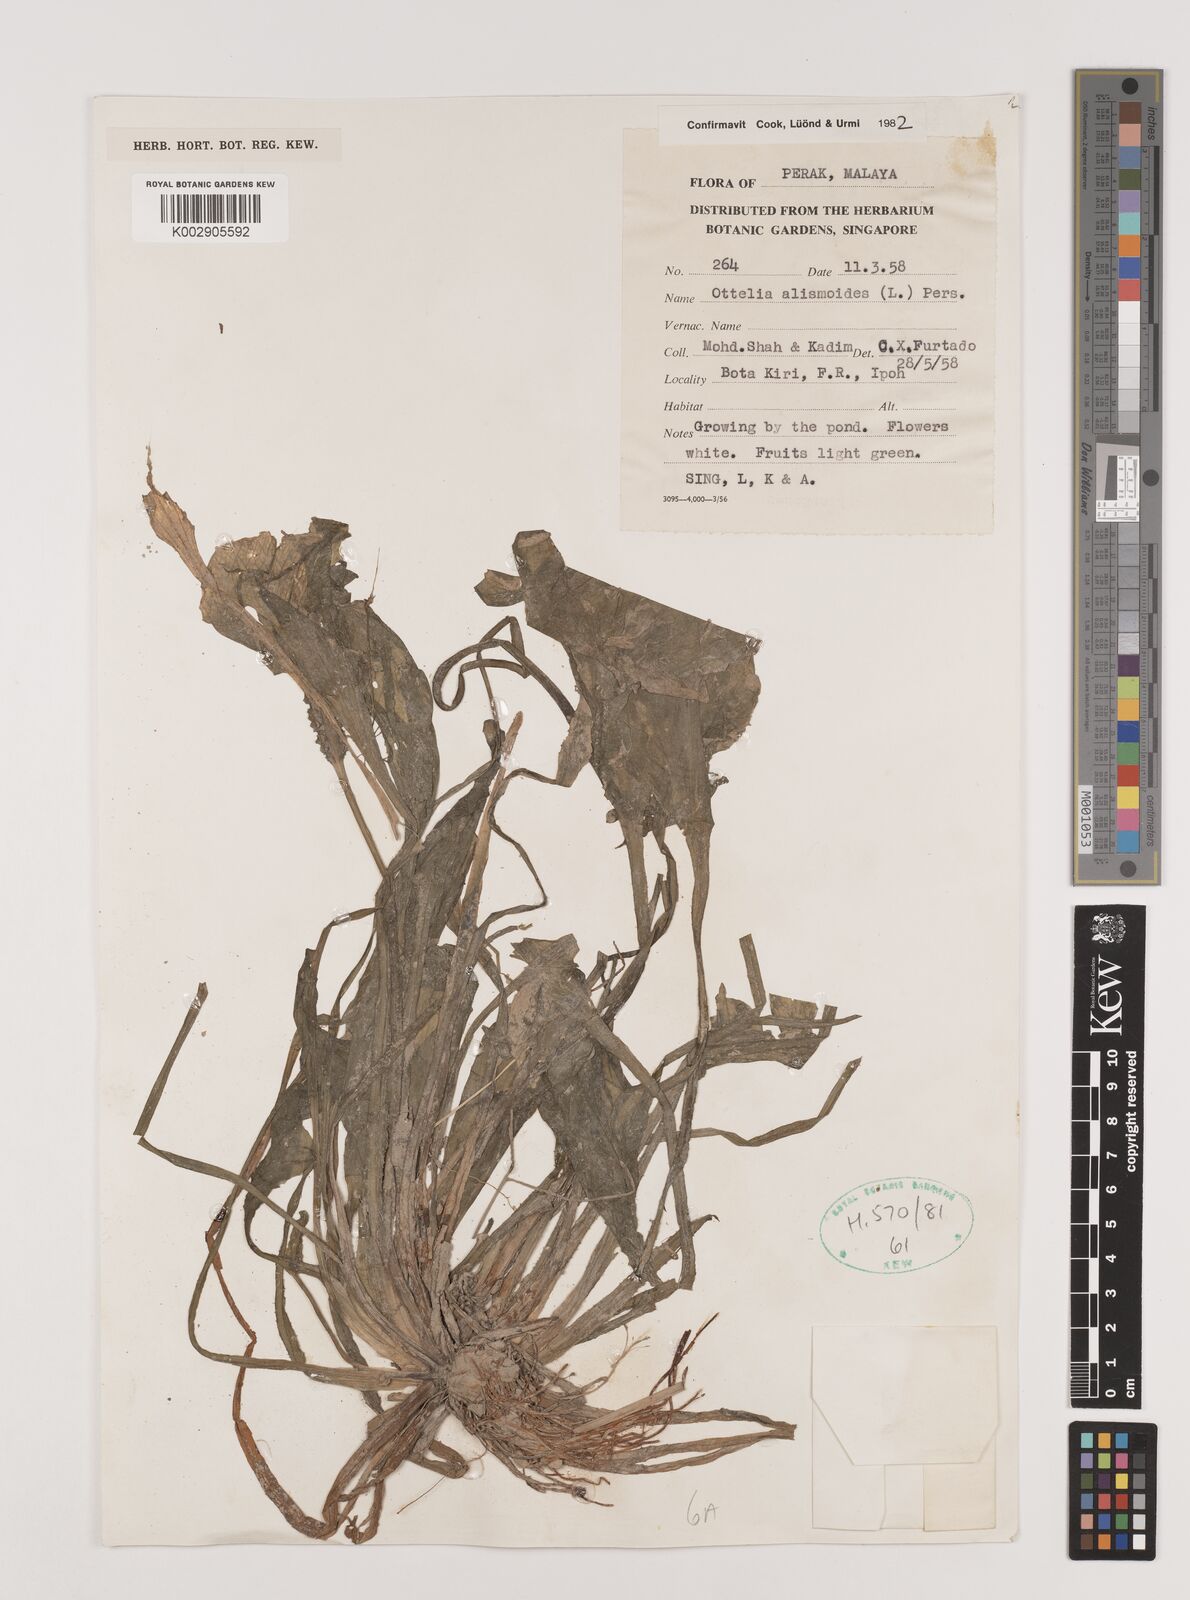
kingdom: Plantae
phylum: Tracheophyta
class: Liliopsida
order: Alismatales
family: Hydrocharitaceae
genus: Ottelia
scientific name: Ottelia alismoides
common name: Duck-lettuce
